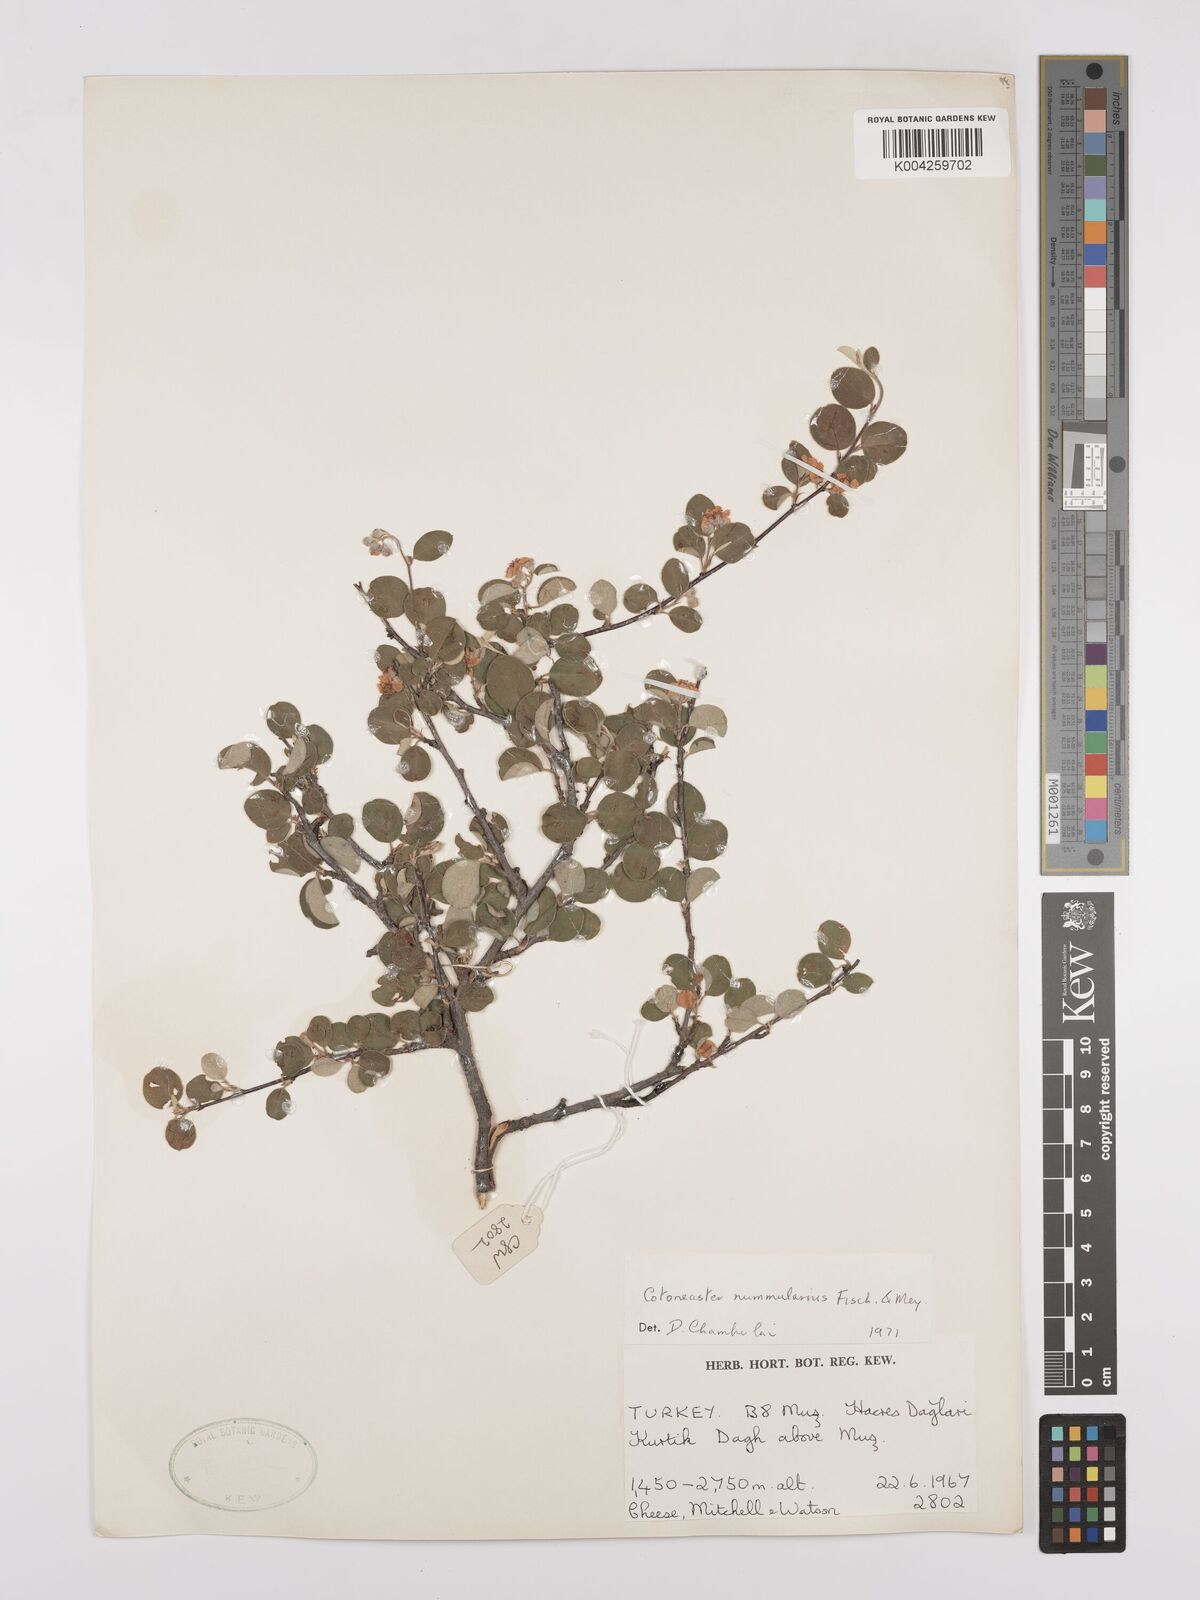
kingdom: Plantae
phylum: Tracheophyta
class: Magnoliopsida
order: Rosales
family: Rosaceae
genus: Cotoneaster
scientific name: Cotoneaster racemiflorus
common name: Cluster-flower cotoneaster
